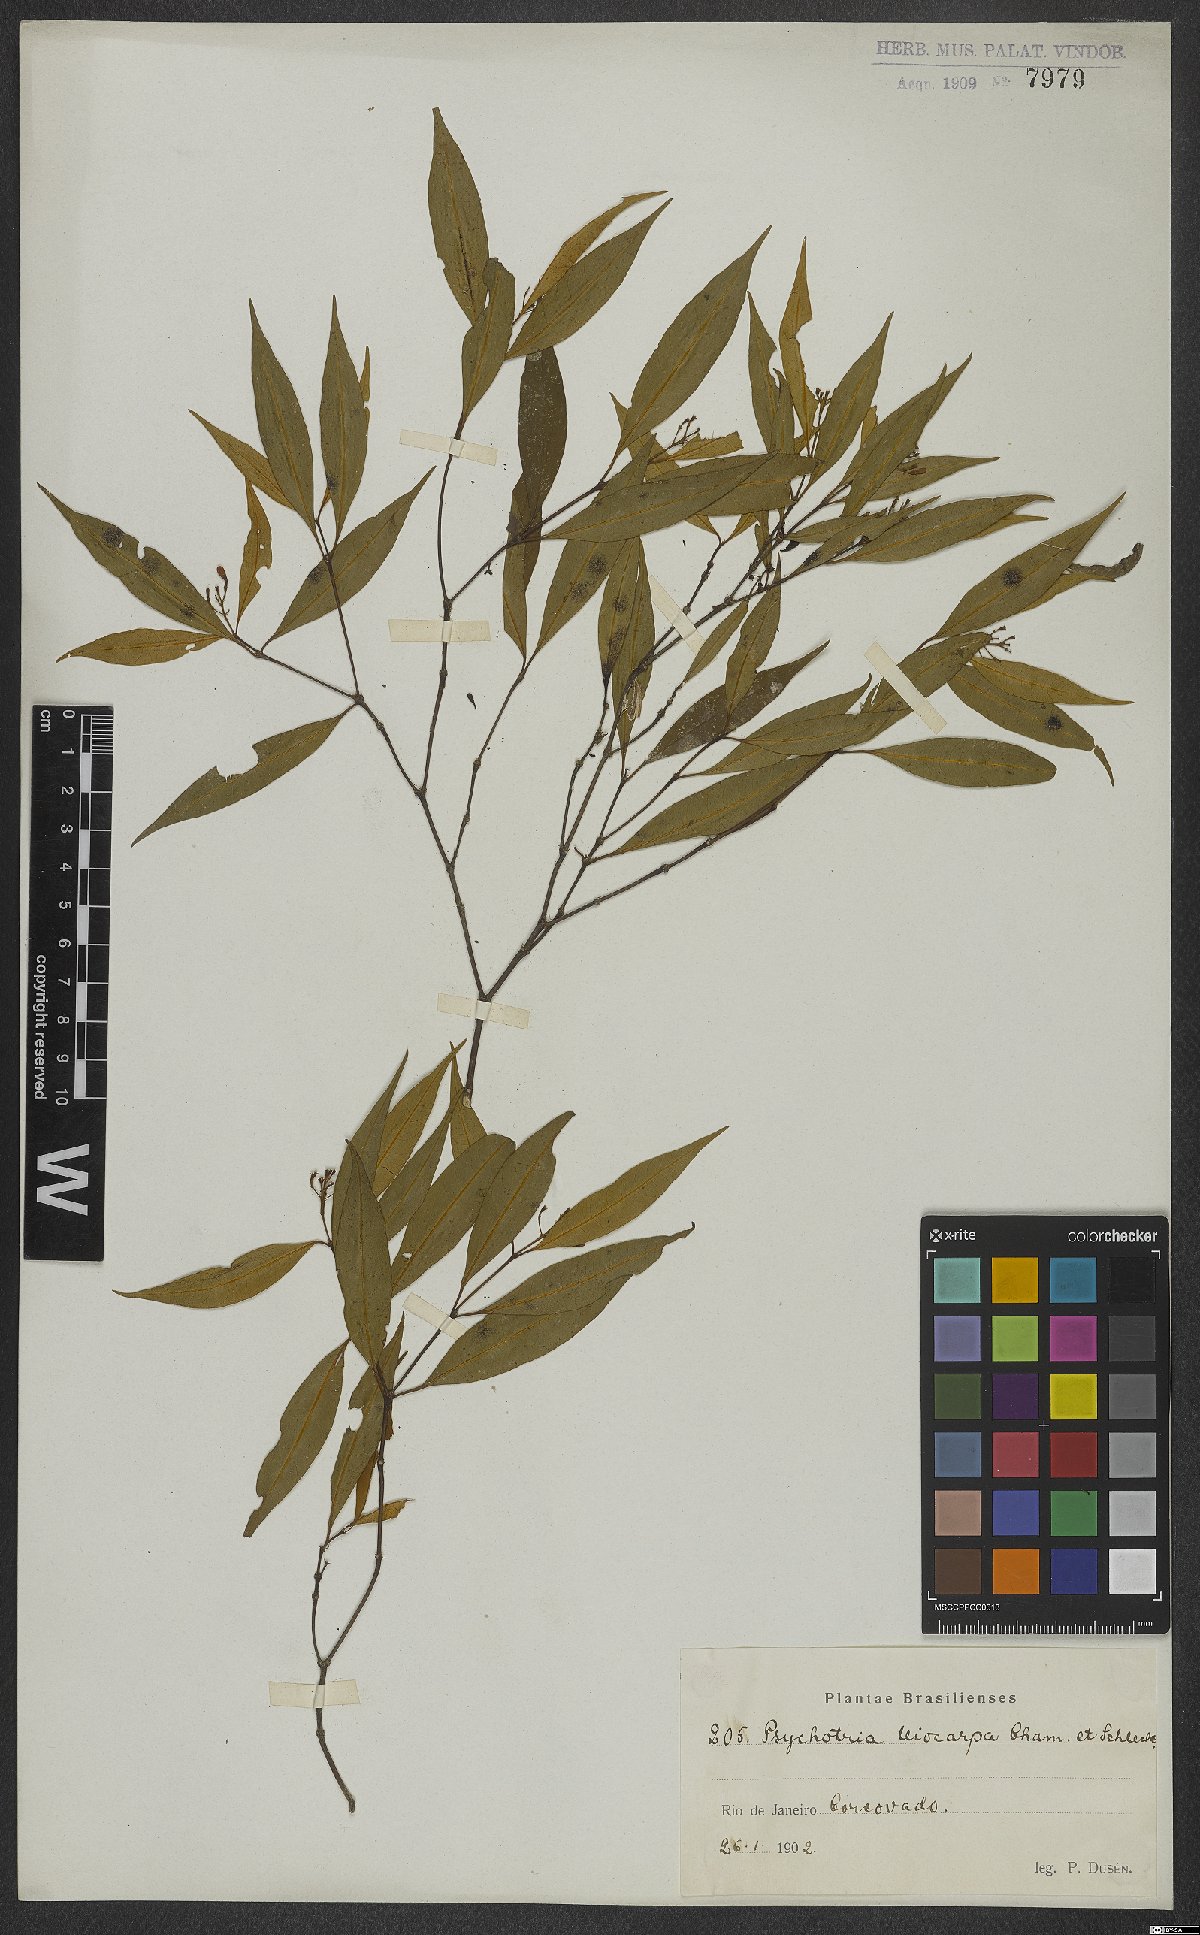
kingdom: Plantae
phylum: Tracheophyta
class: Magnoliopsida
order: Gentianales
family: Rubiaceae
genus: Psychotria
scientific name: Psychotria leiocarpa
